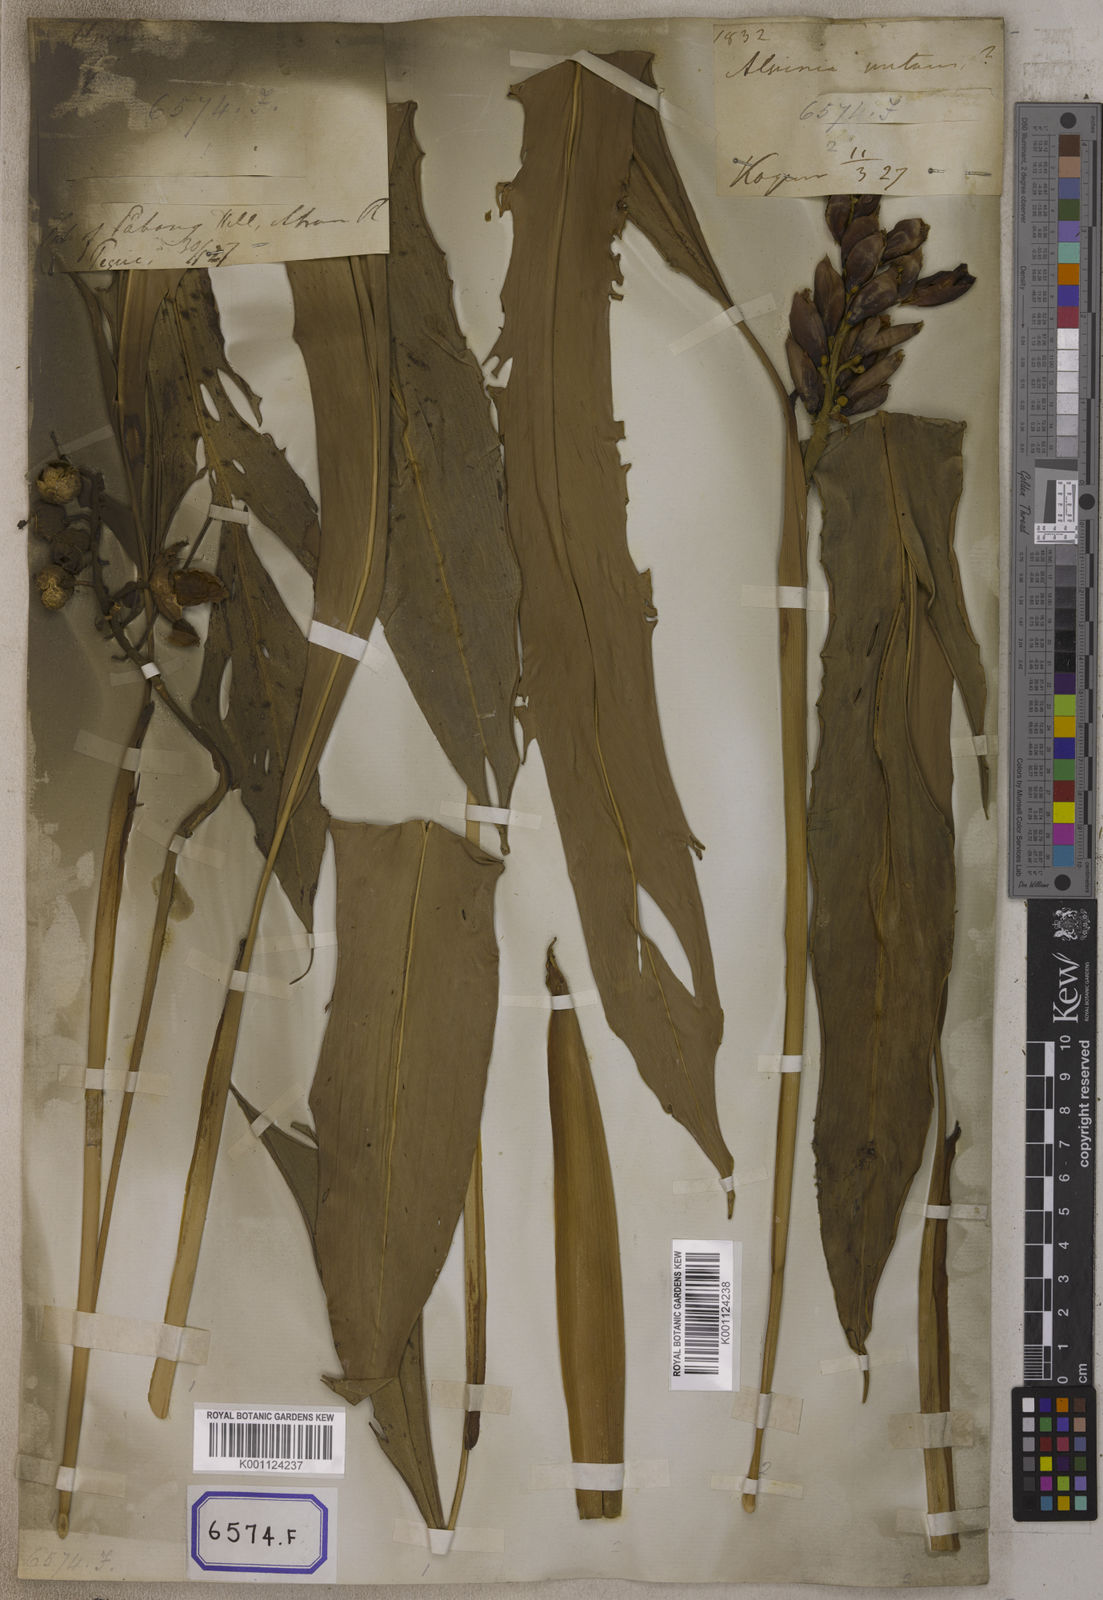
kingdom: Plantae
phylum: Tracheophyta
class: Liliopsida
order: Zingiberales
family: Zingiberaceae
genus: Alpinia
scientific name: Alpinia nutans
